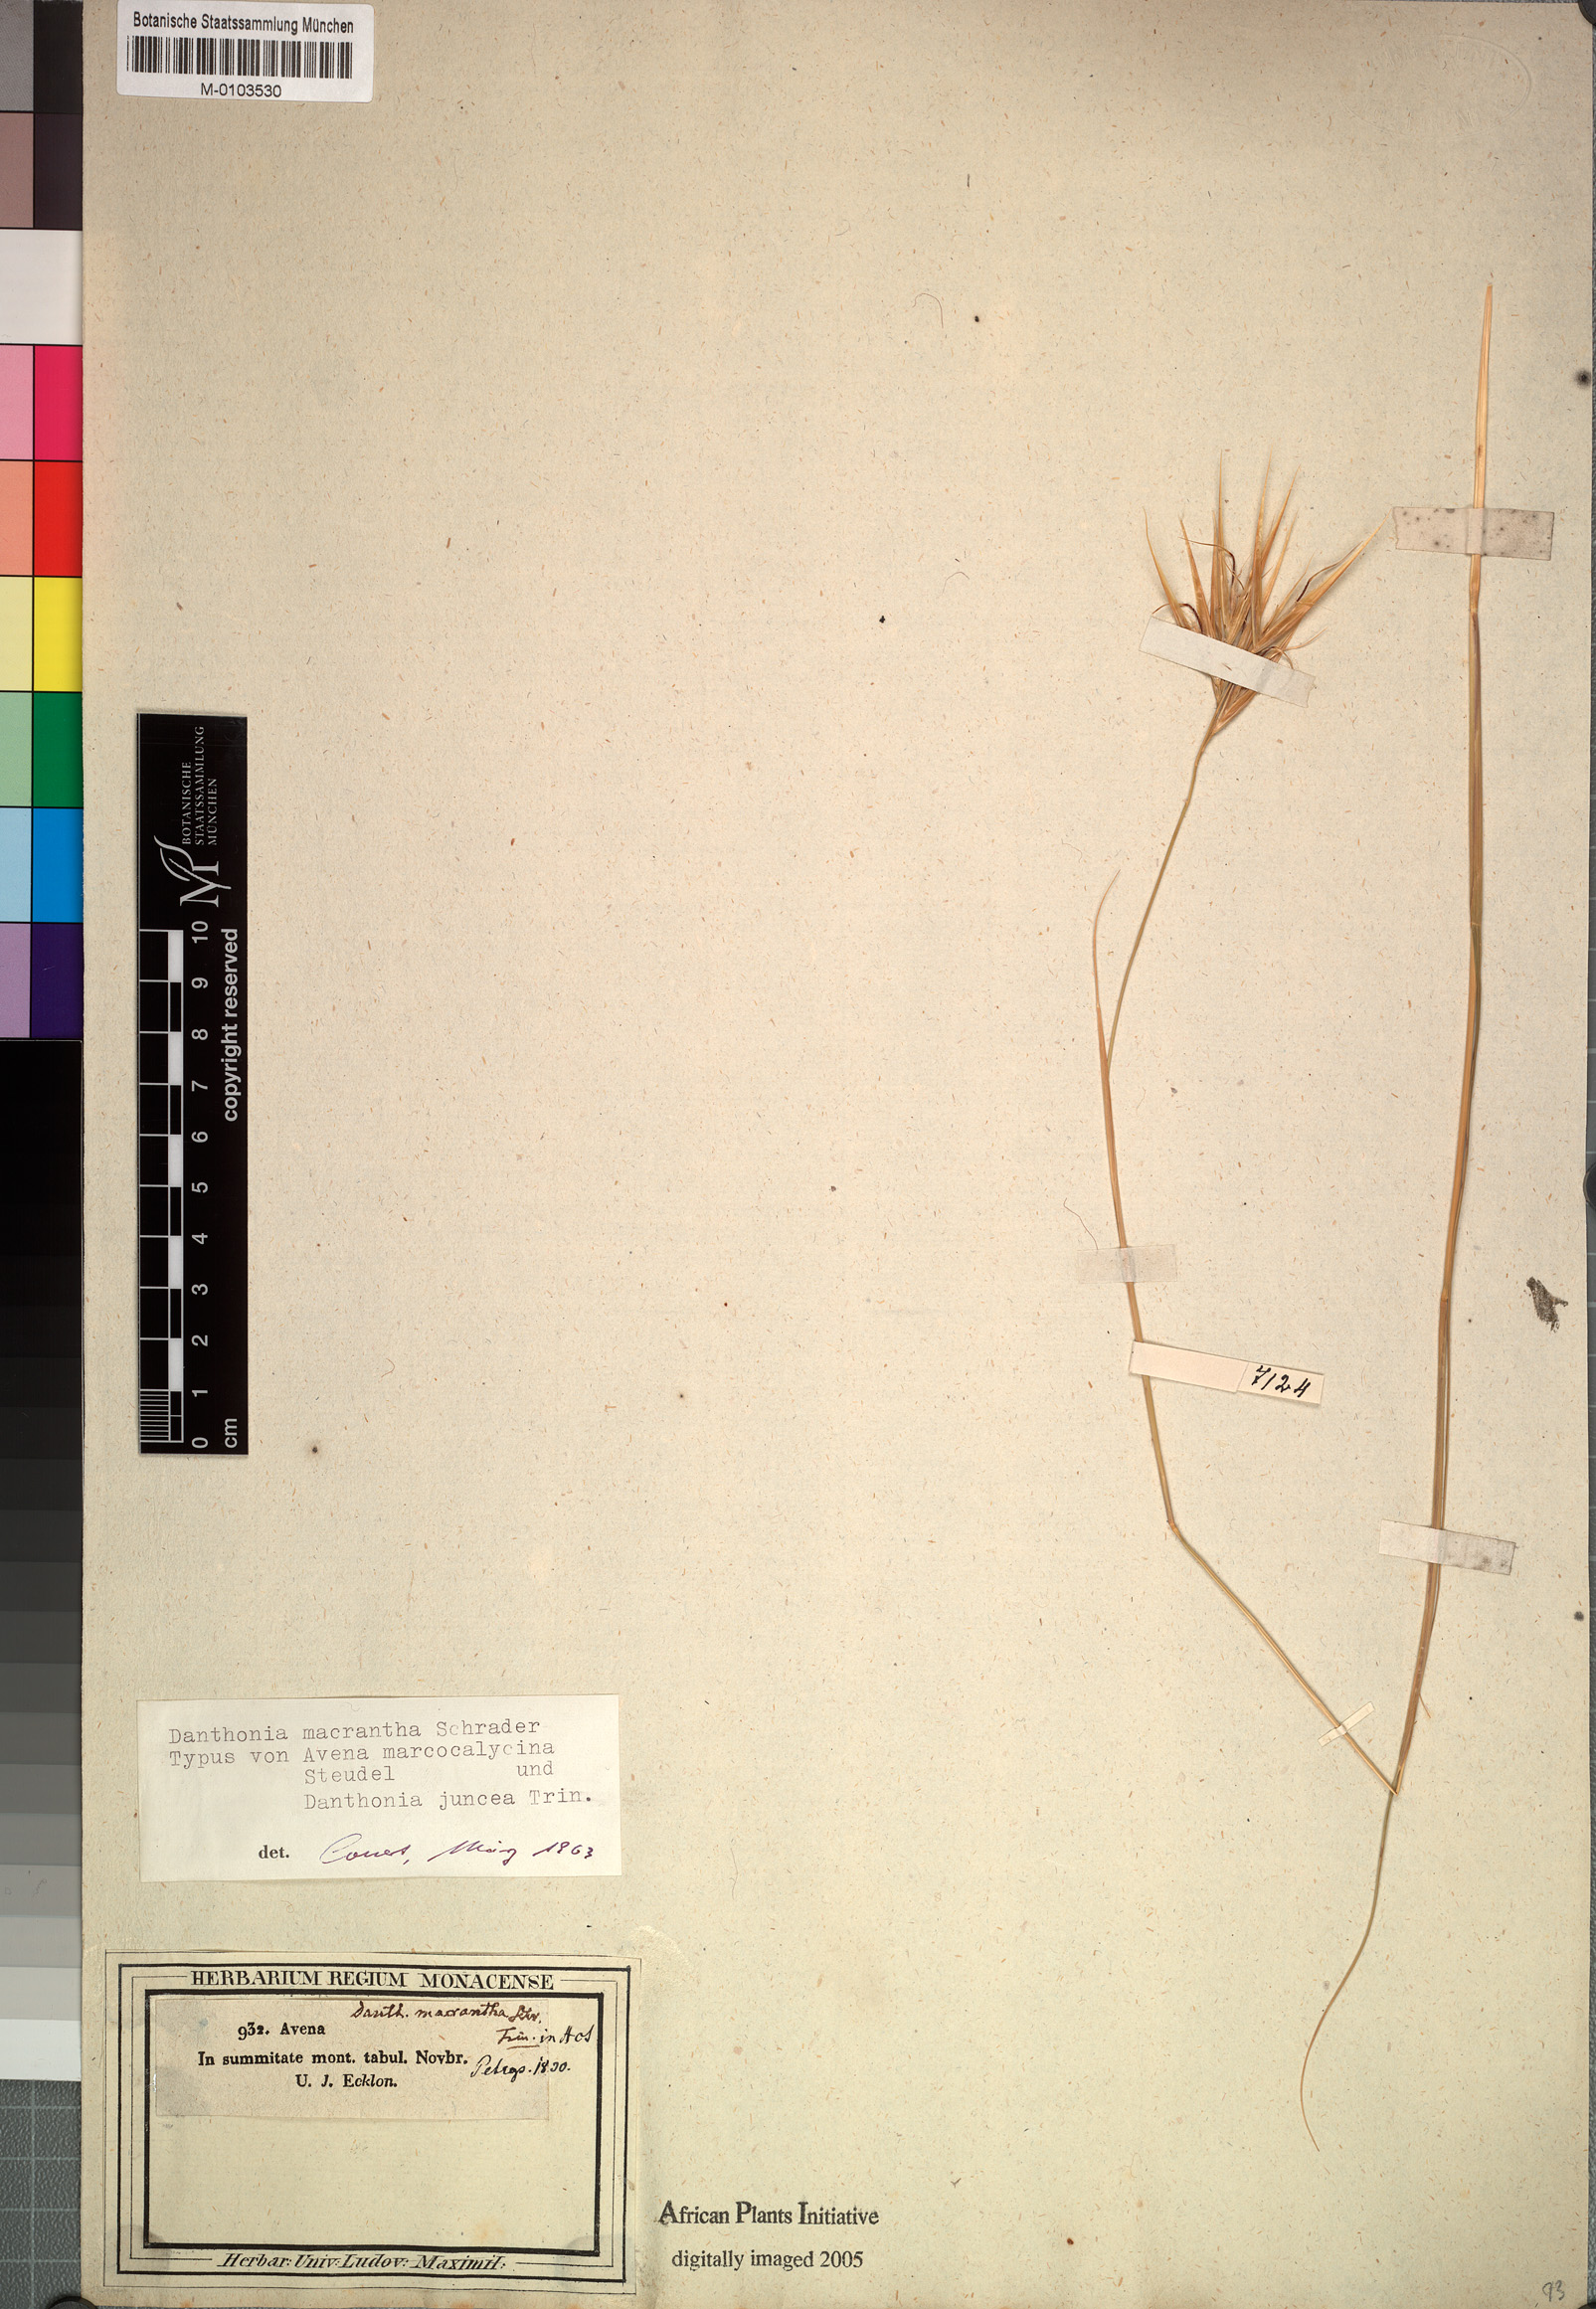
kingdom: Plantae
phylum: Tracheophyta
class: Liliopsida
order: Poales
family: Poaceae
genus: Pseudopentameris
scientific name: Pseudopentameris macrantha
